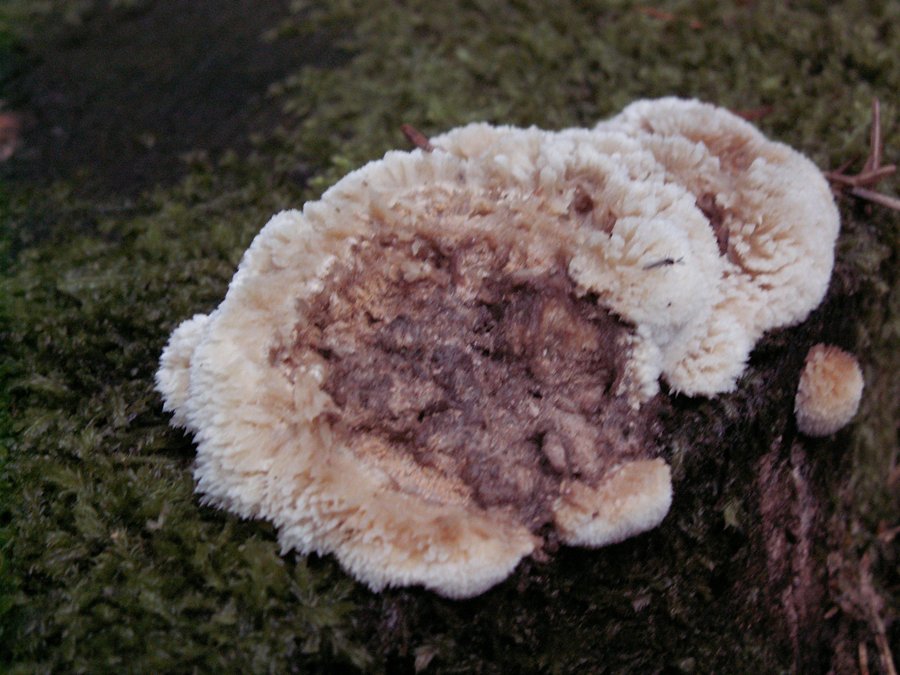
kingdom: Fungi
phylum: Basidiomycota
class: Agaricomycetes
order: Polyporales
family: Dacryobolaceae
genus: Postia
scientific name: Postia ptychogaster
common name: støvende kødporesvamp
